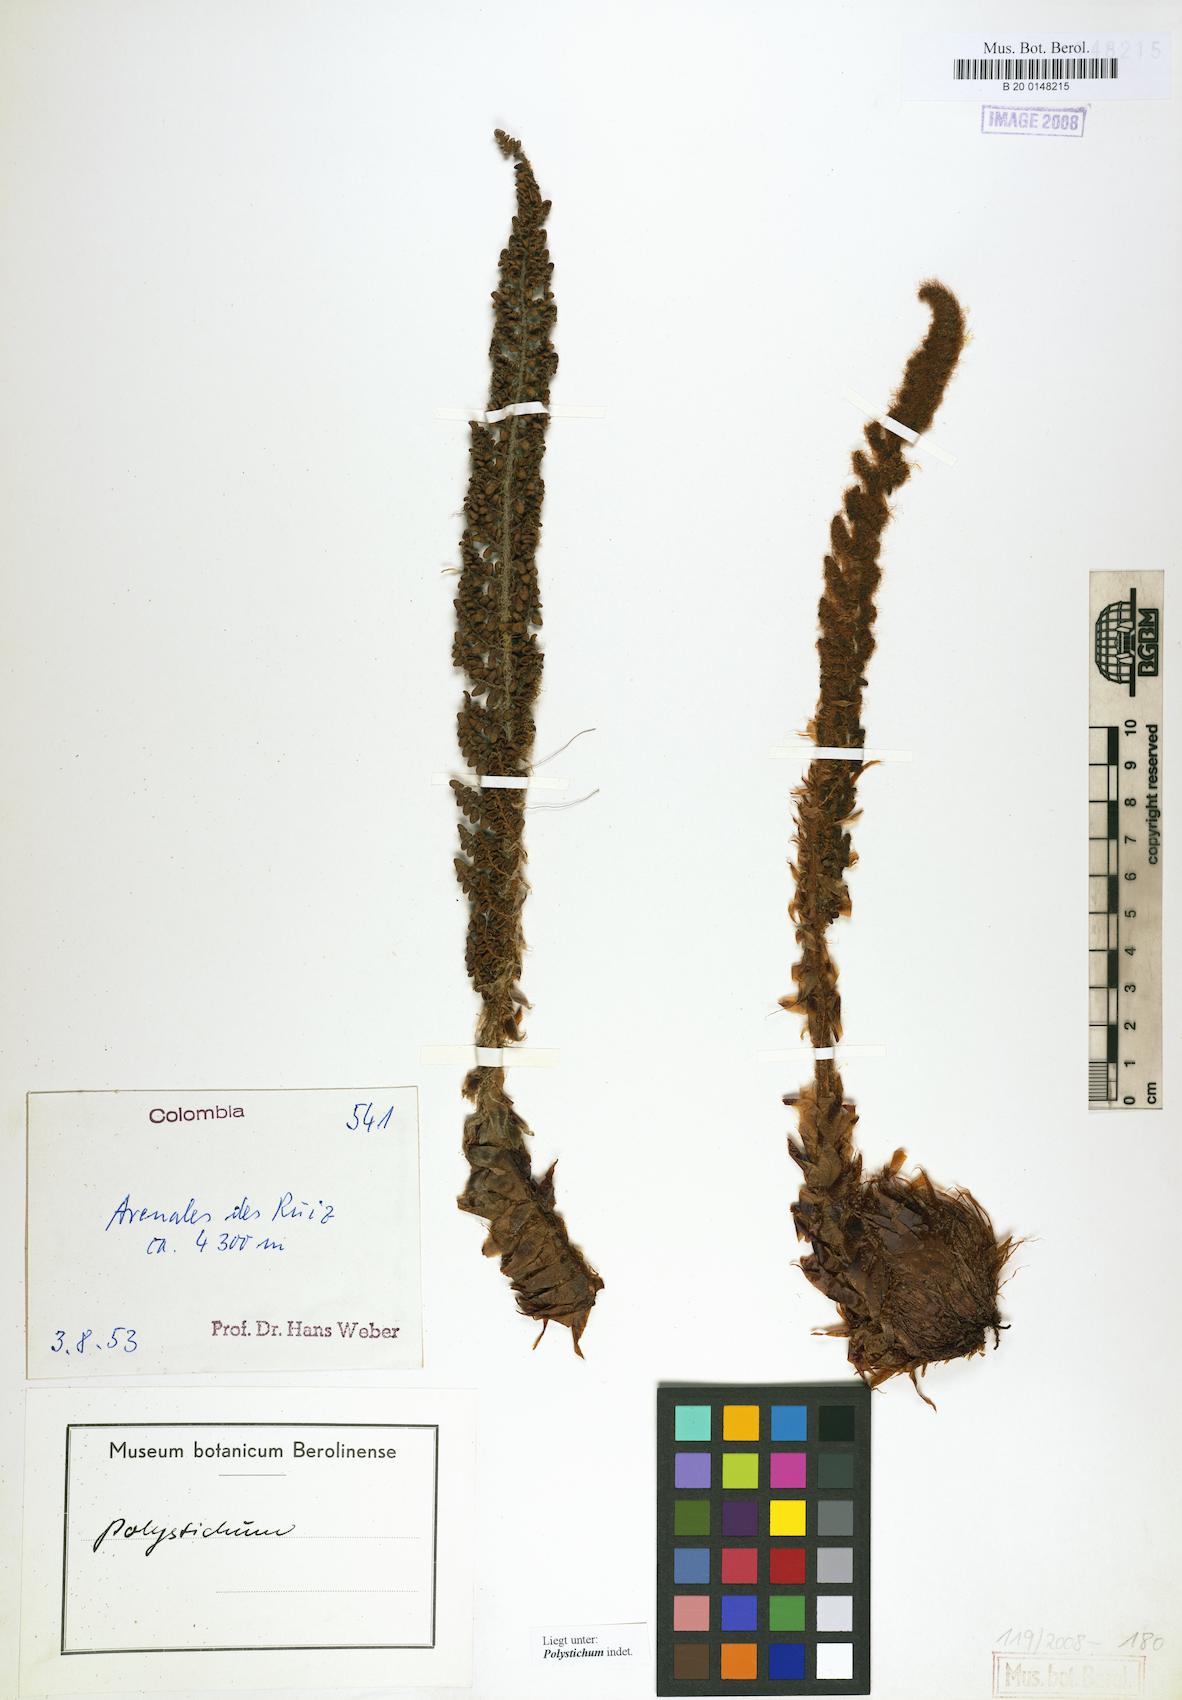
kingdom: Plantae
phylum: Tracheophyta
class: Polypodiopsida
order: Polypodiales
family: Dryopteridaceae
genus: Polystichum
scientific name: Polystichum
